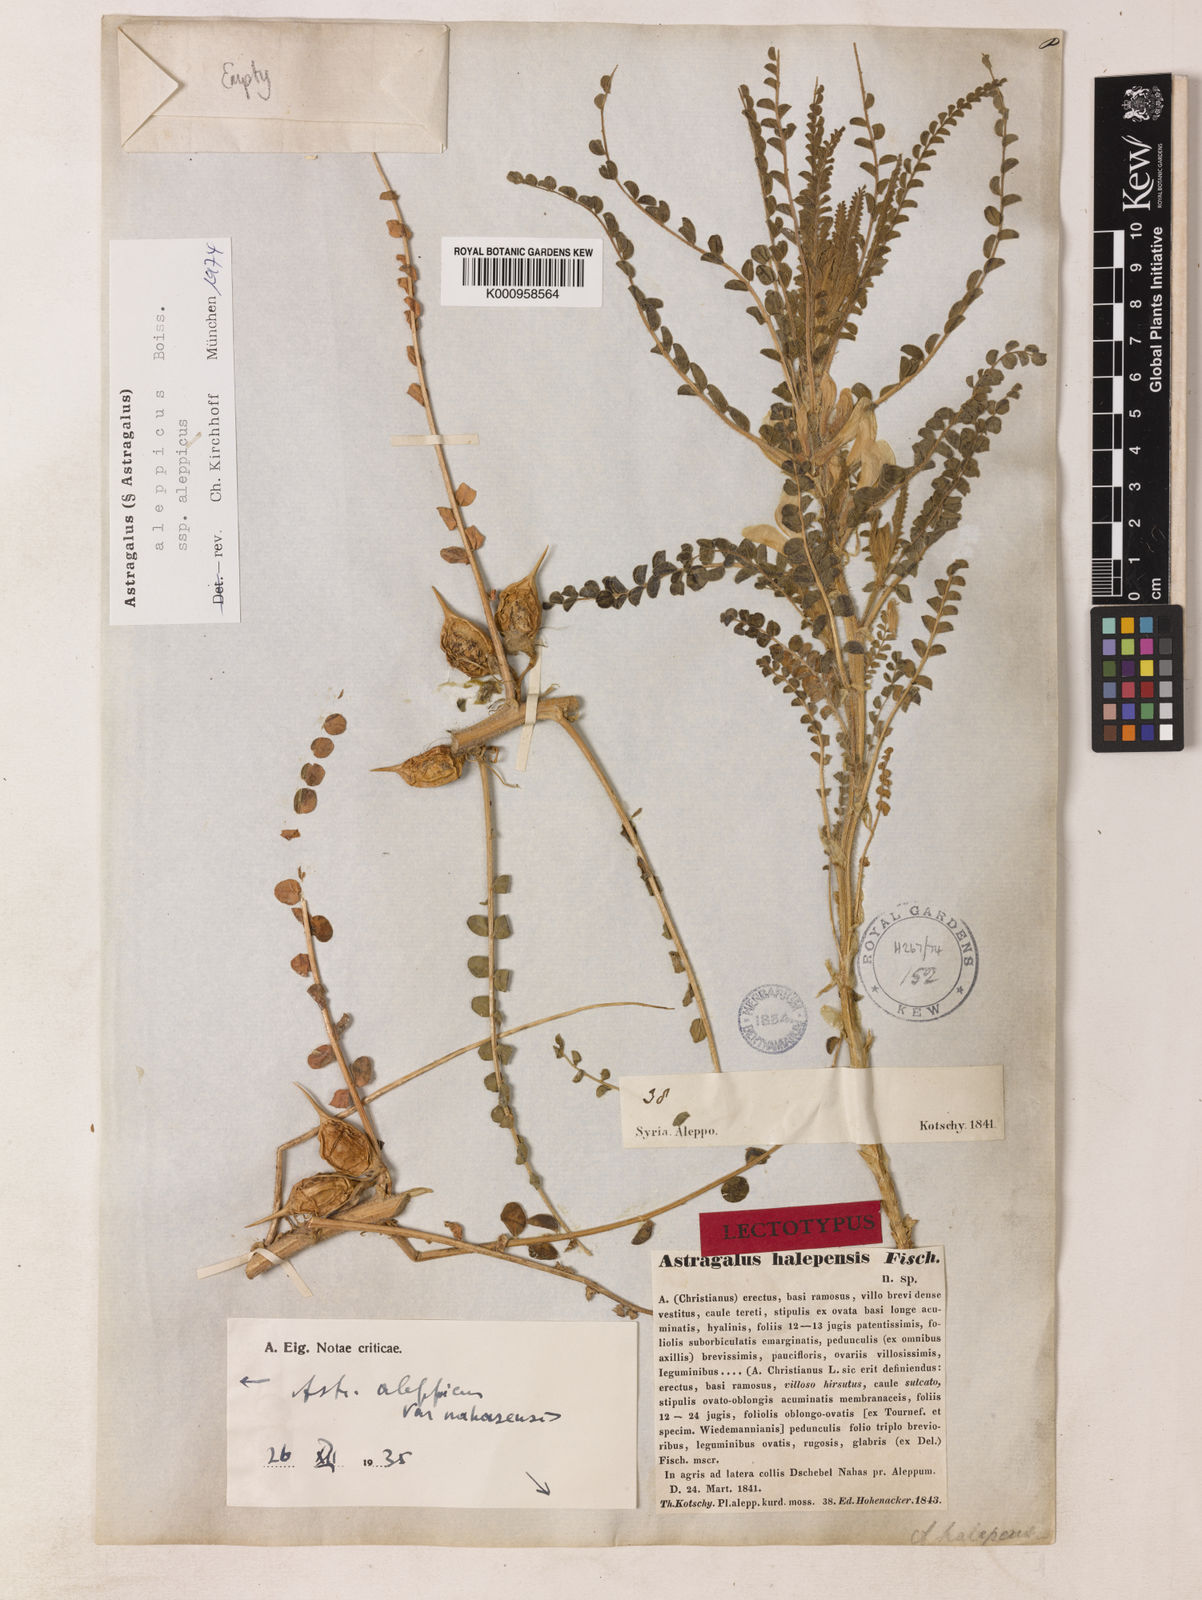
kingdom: Plantae
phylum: Tracheophyta
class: Magnoliopsida
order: Fabales
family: Fabaceae
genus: Astragalus
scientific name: Astragalus
